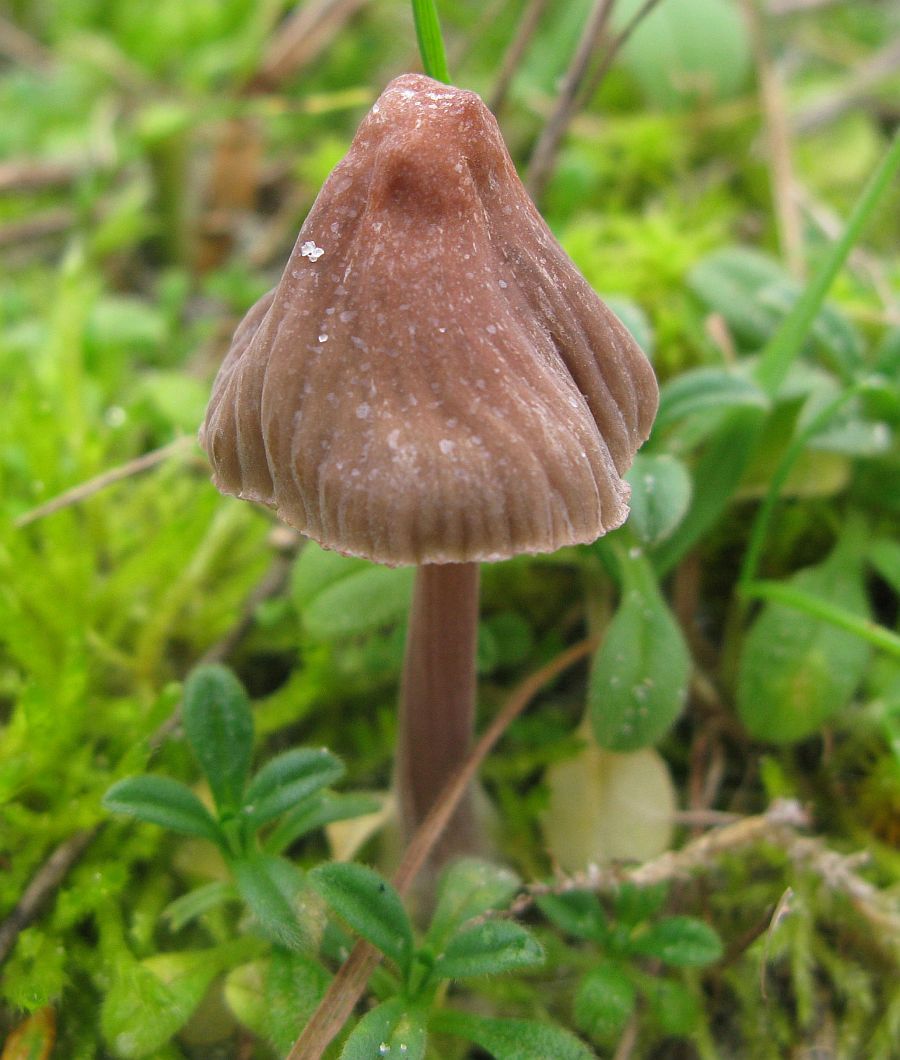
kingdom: Fungi
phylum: Basidiomycota
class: Agaricomycetes
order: Agaricales
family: Mycenaceae
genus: Mycena
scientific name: Mycena olivaceomarginata
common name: brunægget huesvamp
